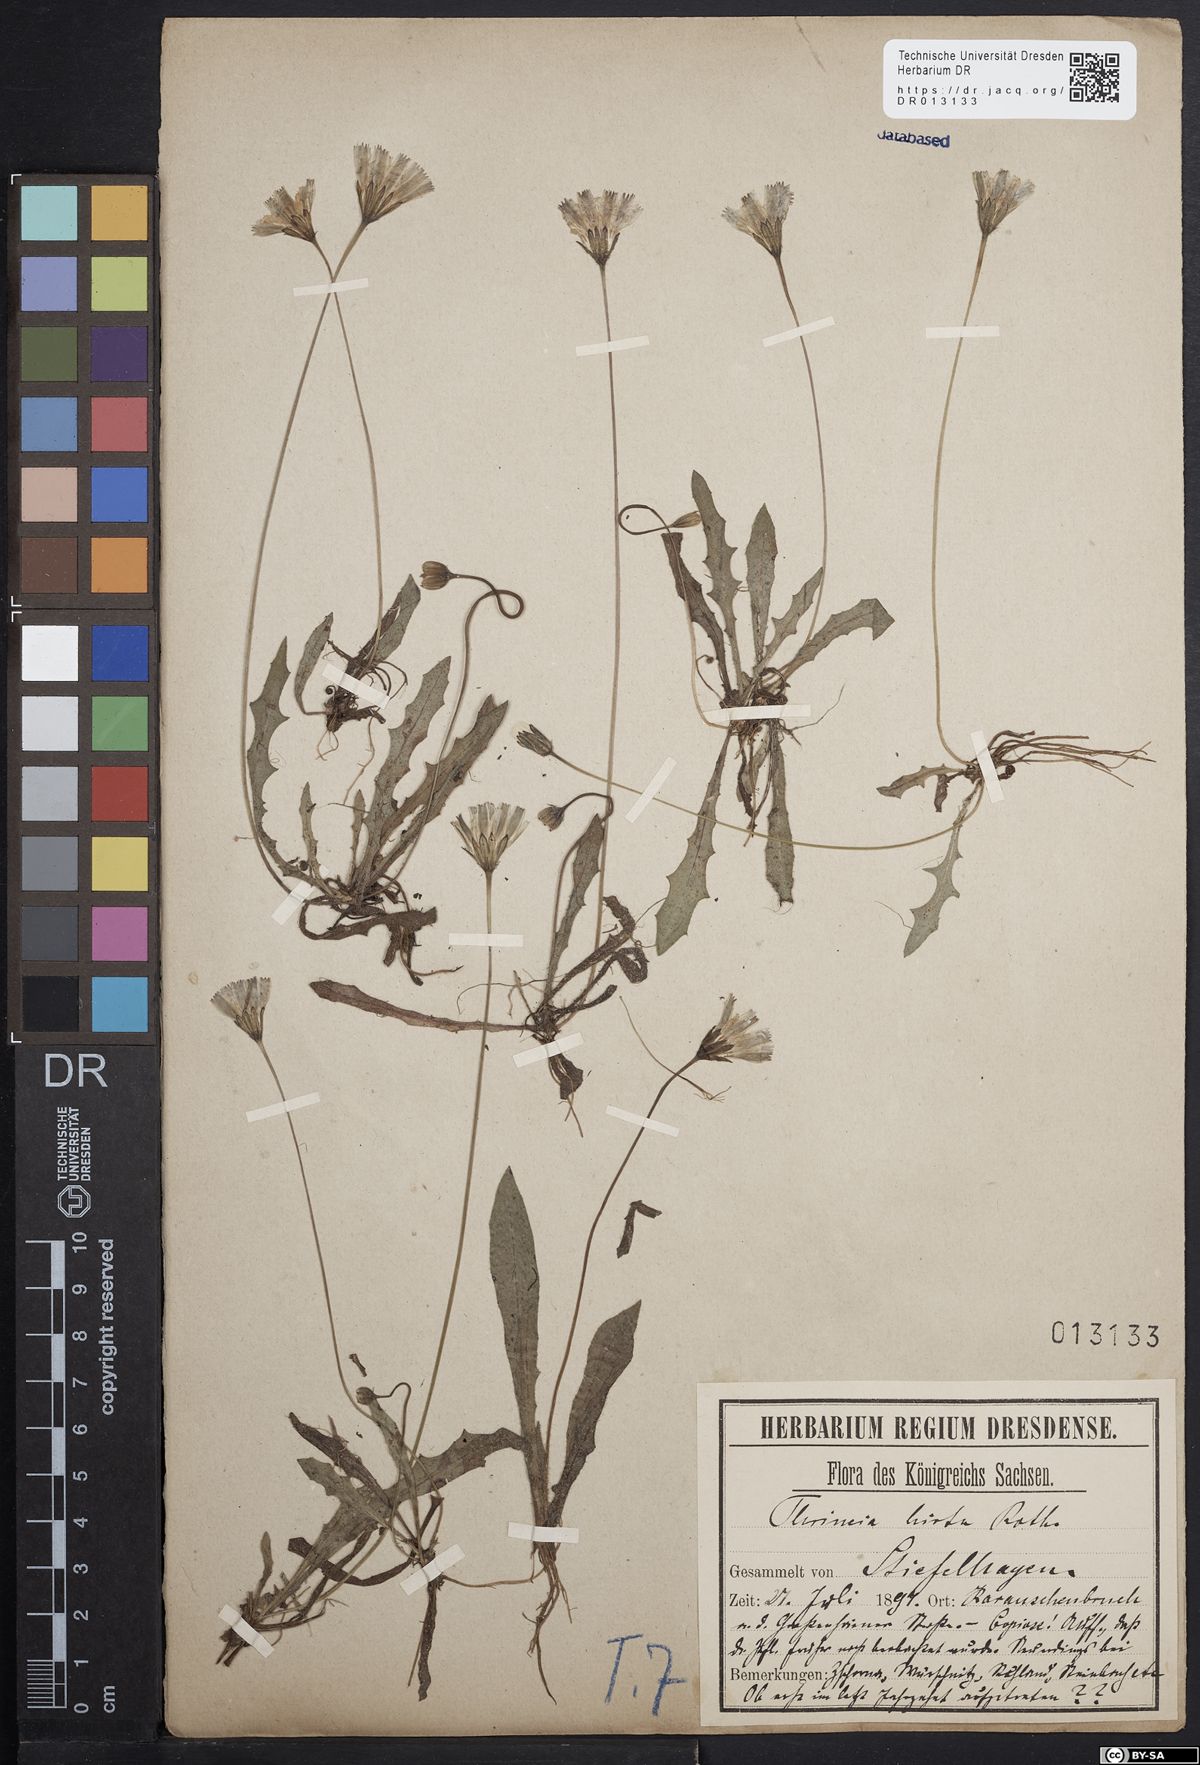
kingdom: Plantae
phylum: Tracheophyta
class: Magnoliopsida
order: Asterales
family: Asteraceae
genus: Thrincia
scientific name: Thrincia saxatilis
